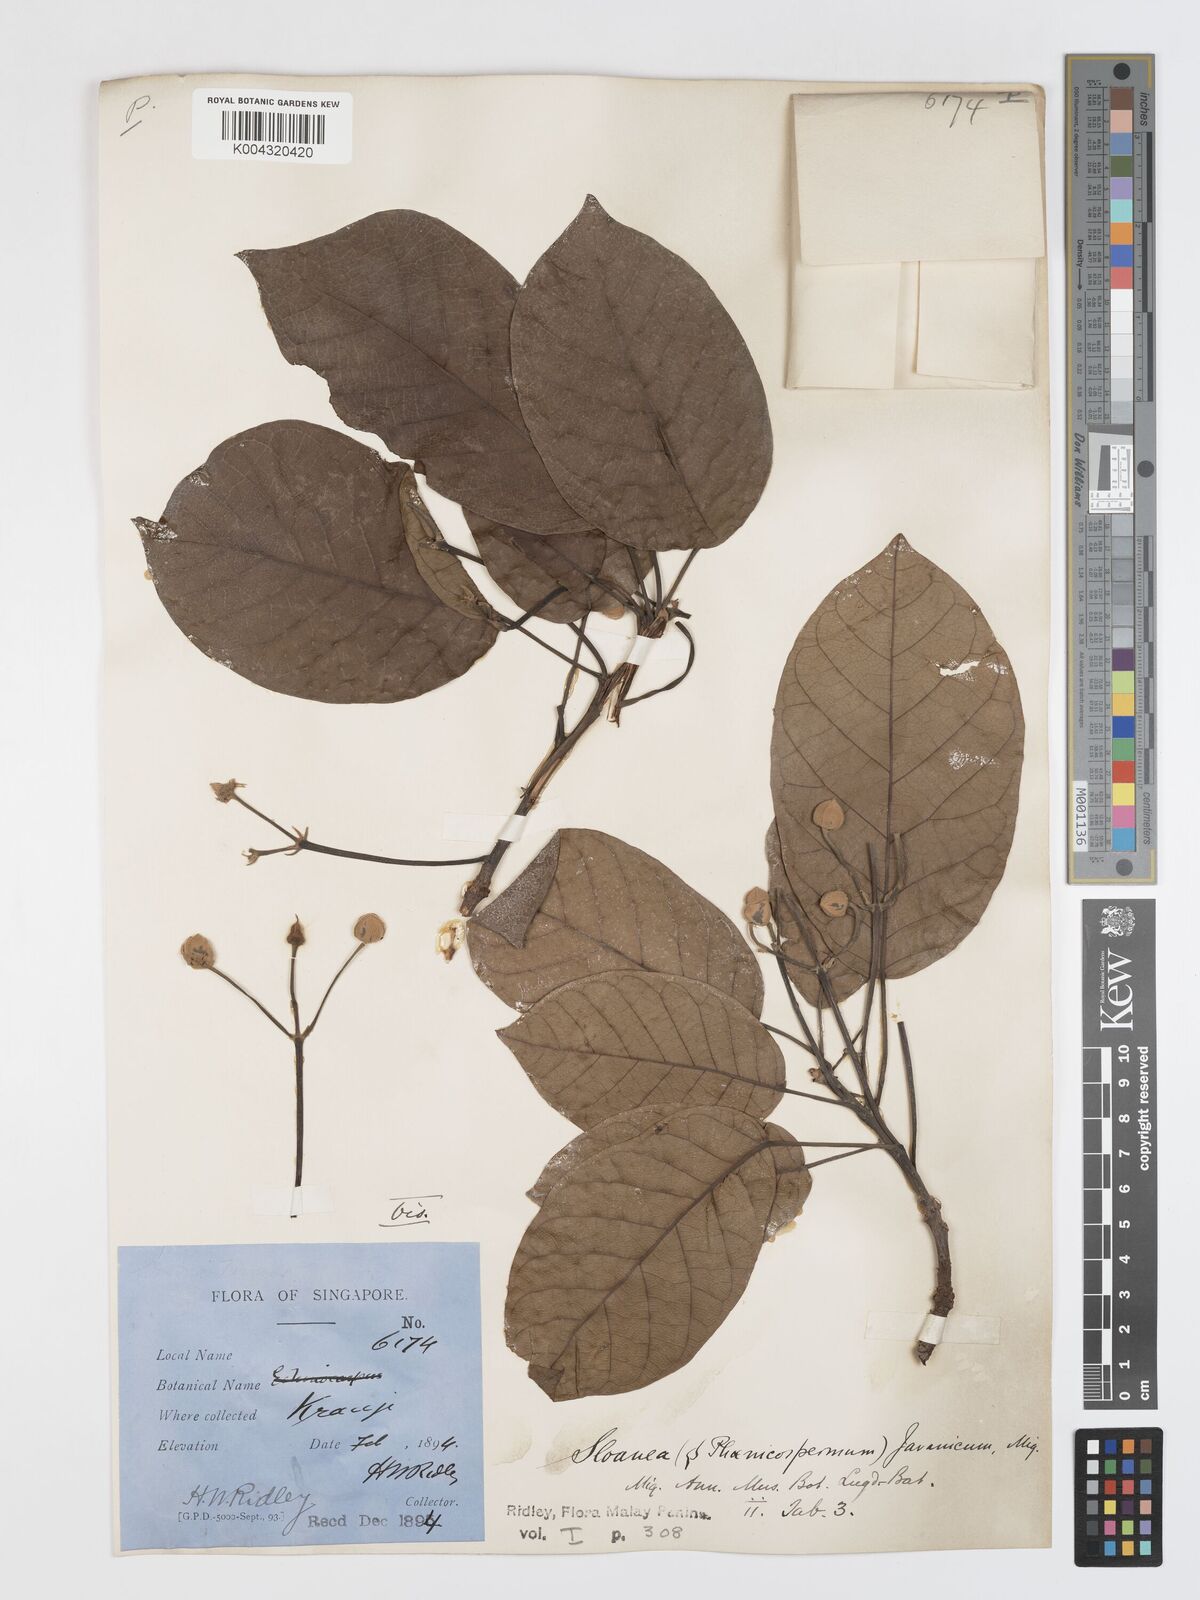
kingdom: Plantae
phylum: Tracheophyta
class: Magnoliopsida
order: Oxalidales
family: Elaeocarpaceae
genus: Sloanea
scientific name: Sloanea javanica
